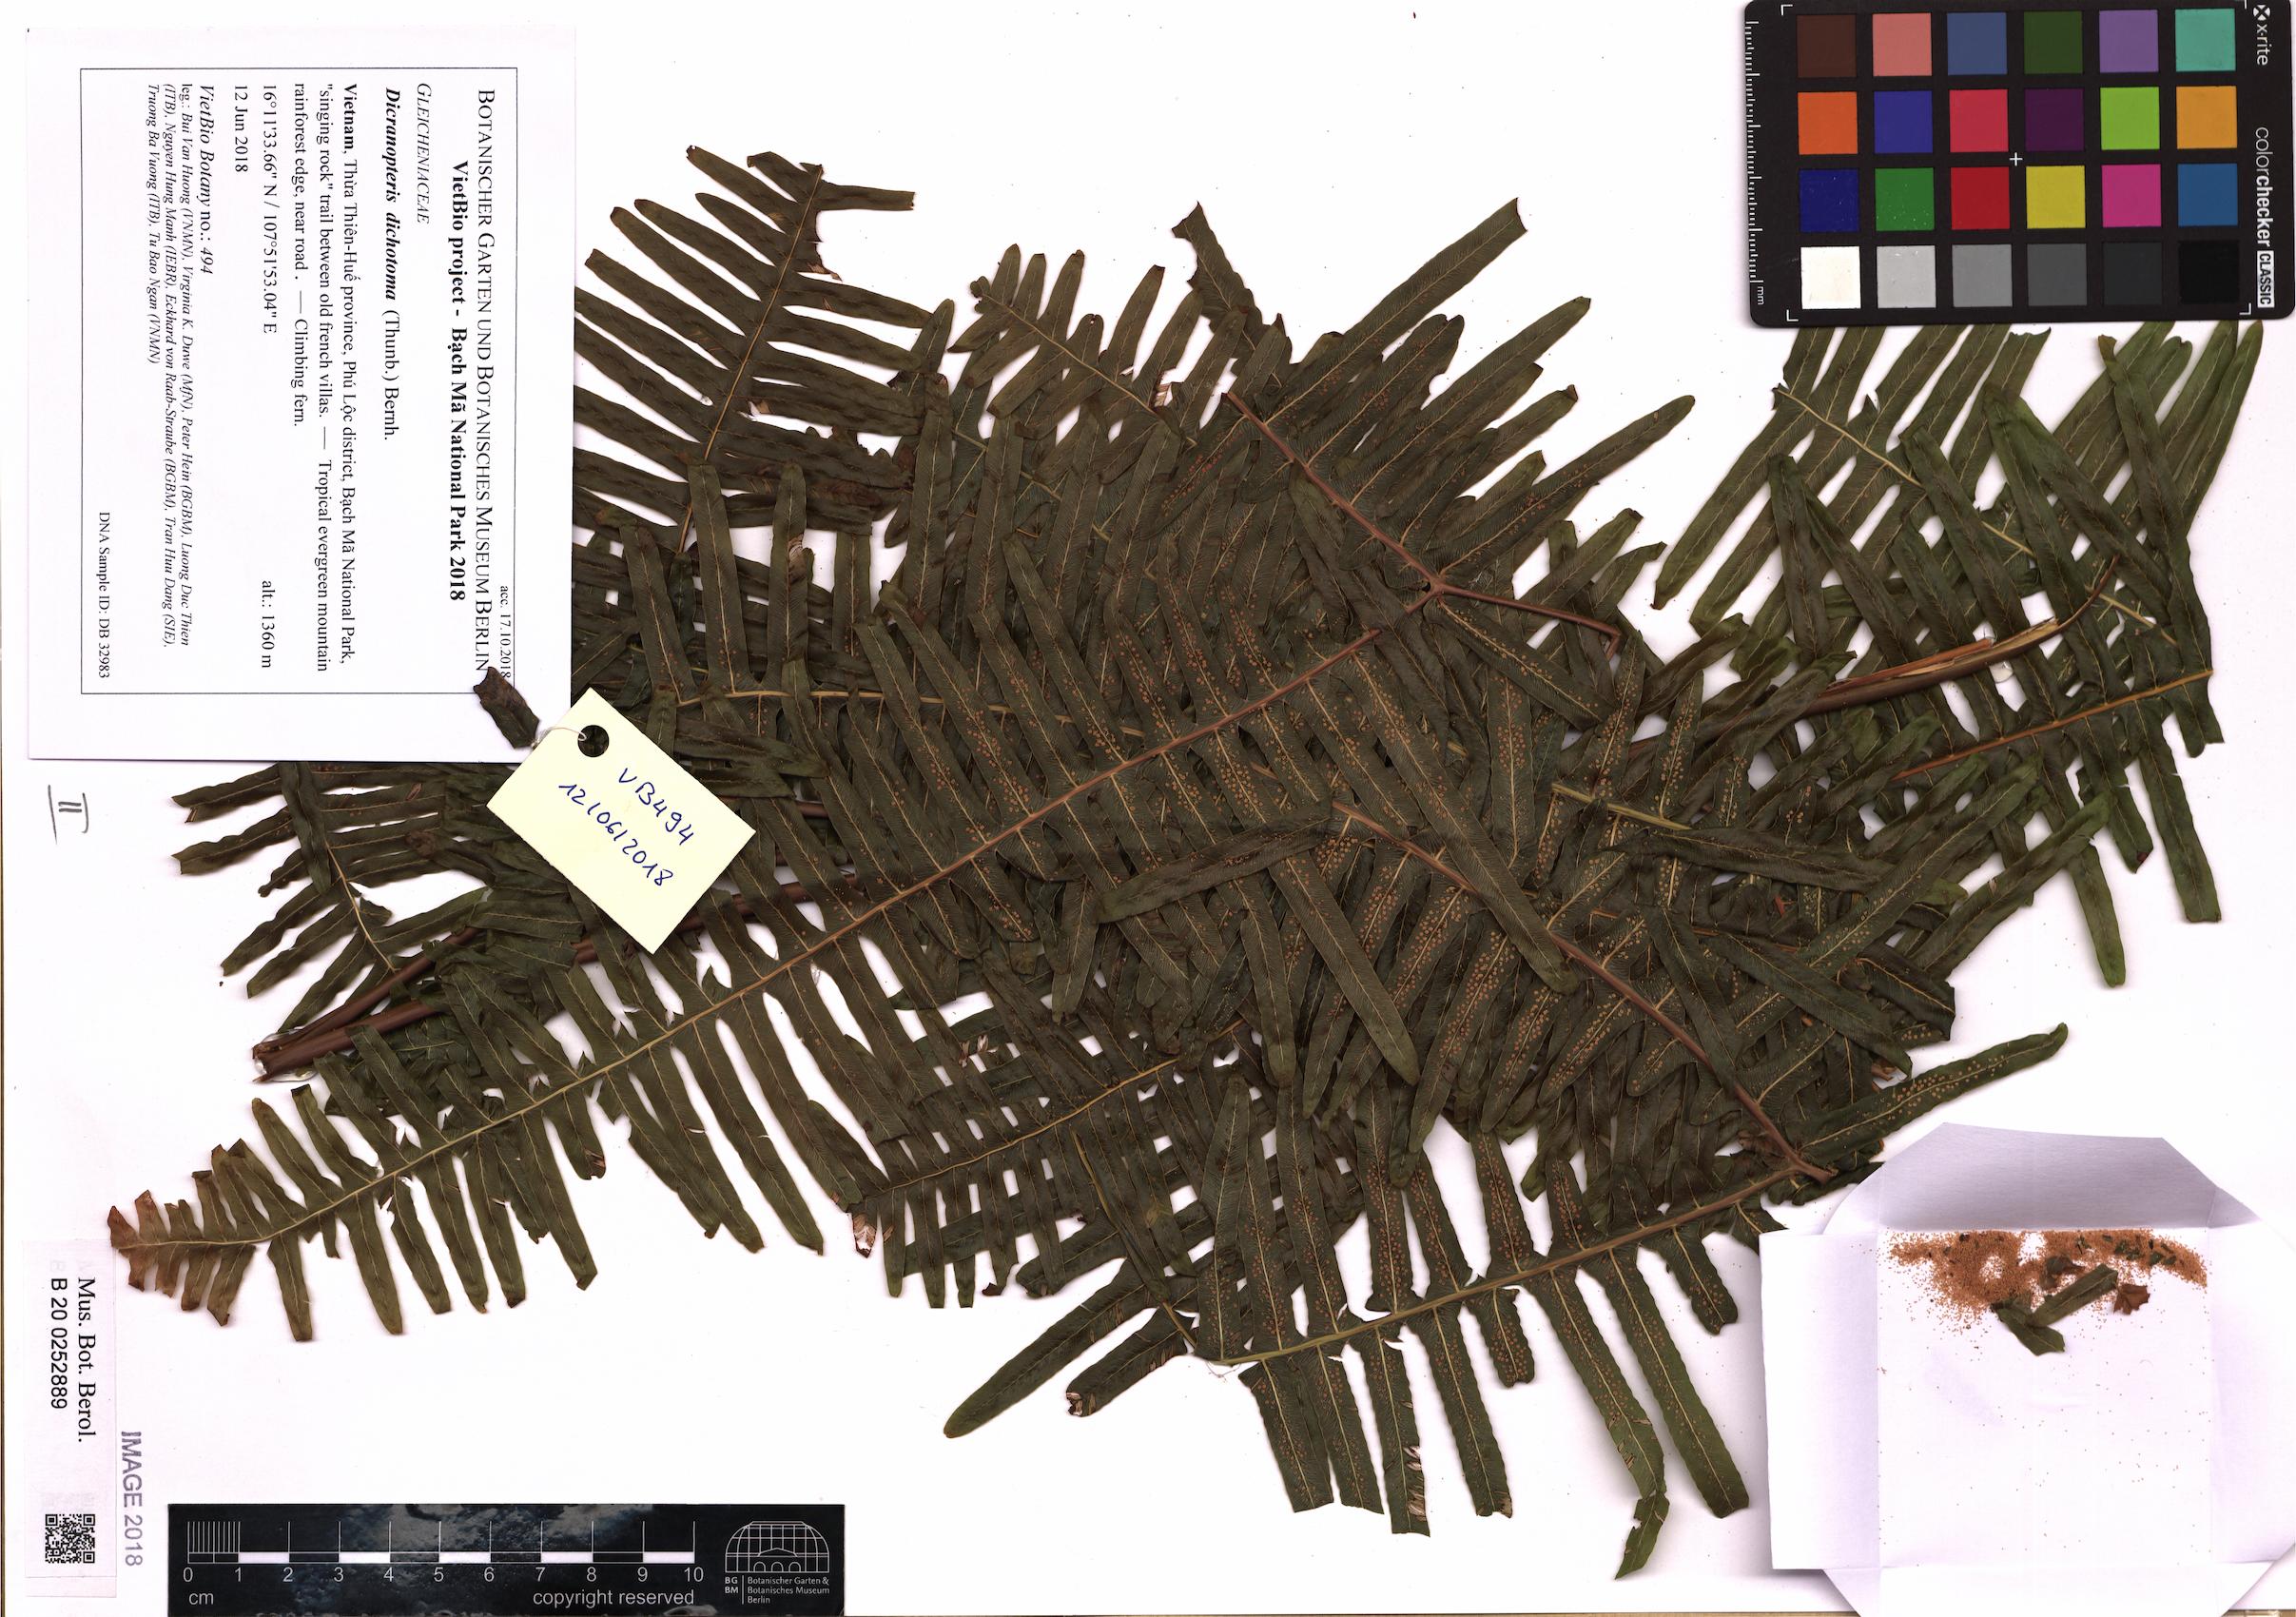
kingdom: Plantae
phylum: Tracheophyta
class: Polypodiopsida
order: Gleicheniales
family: Gleicheniaceae
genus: Dicranopteris
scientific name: Dicranopteris pedata
